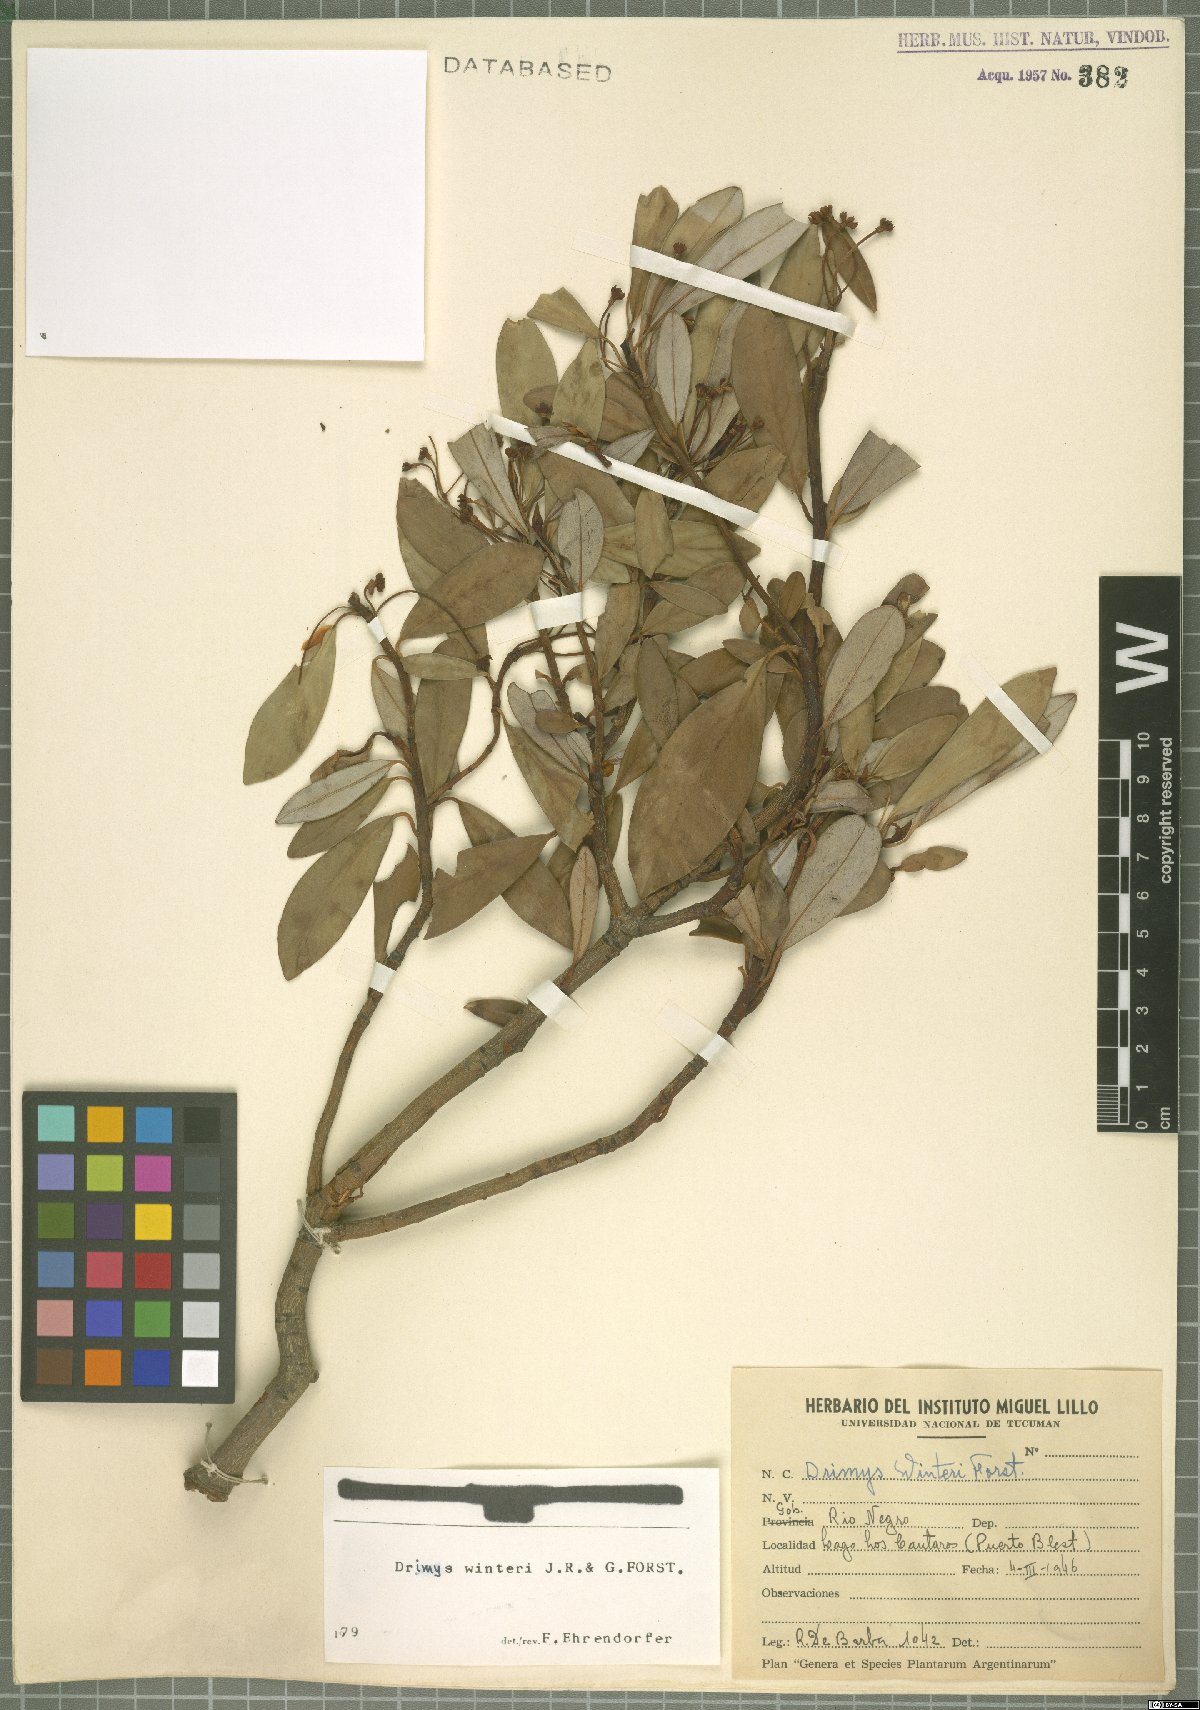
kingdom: Plantae
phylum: Tracheophyta
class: Magnoliopsida
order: Canellales
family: Winteraceae
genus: Drimys
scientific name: Drimys winteri
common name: Winter's-bark
